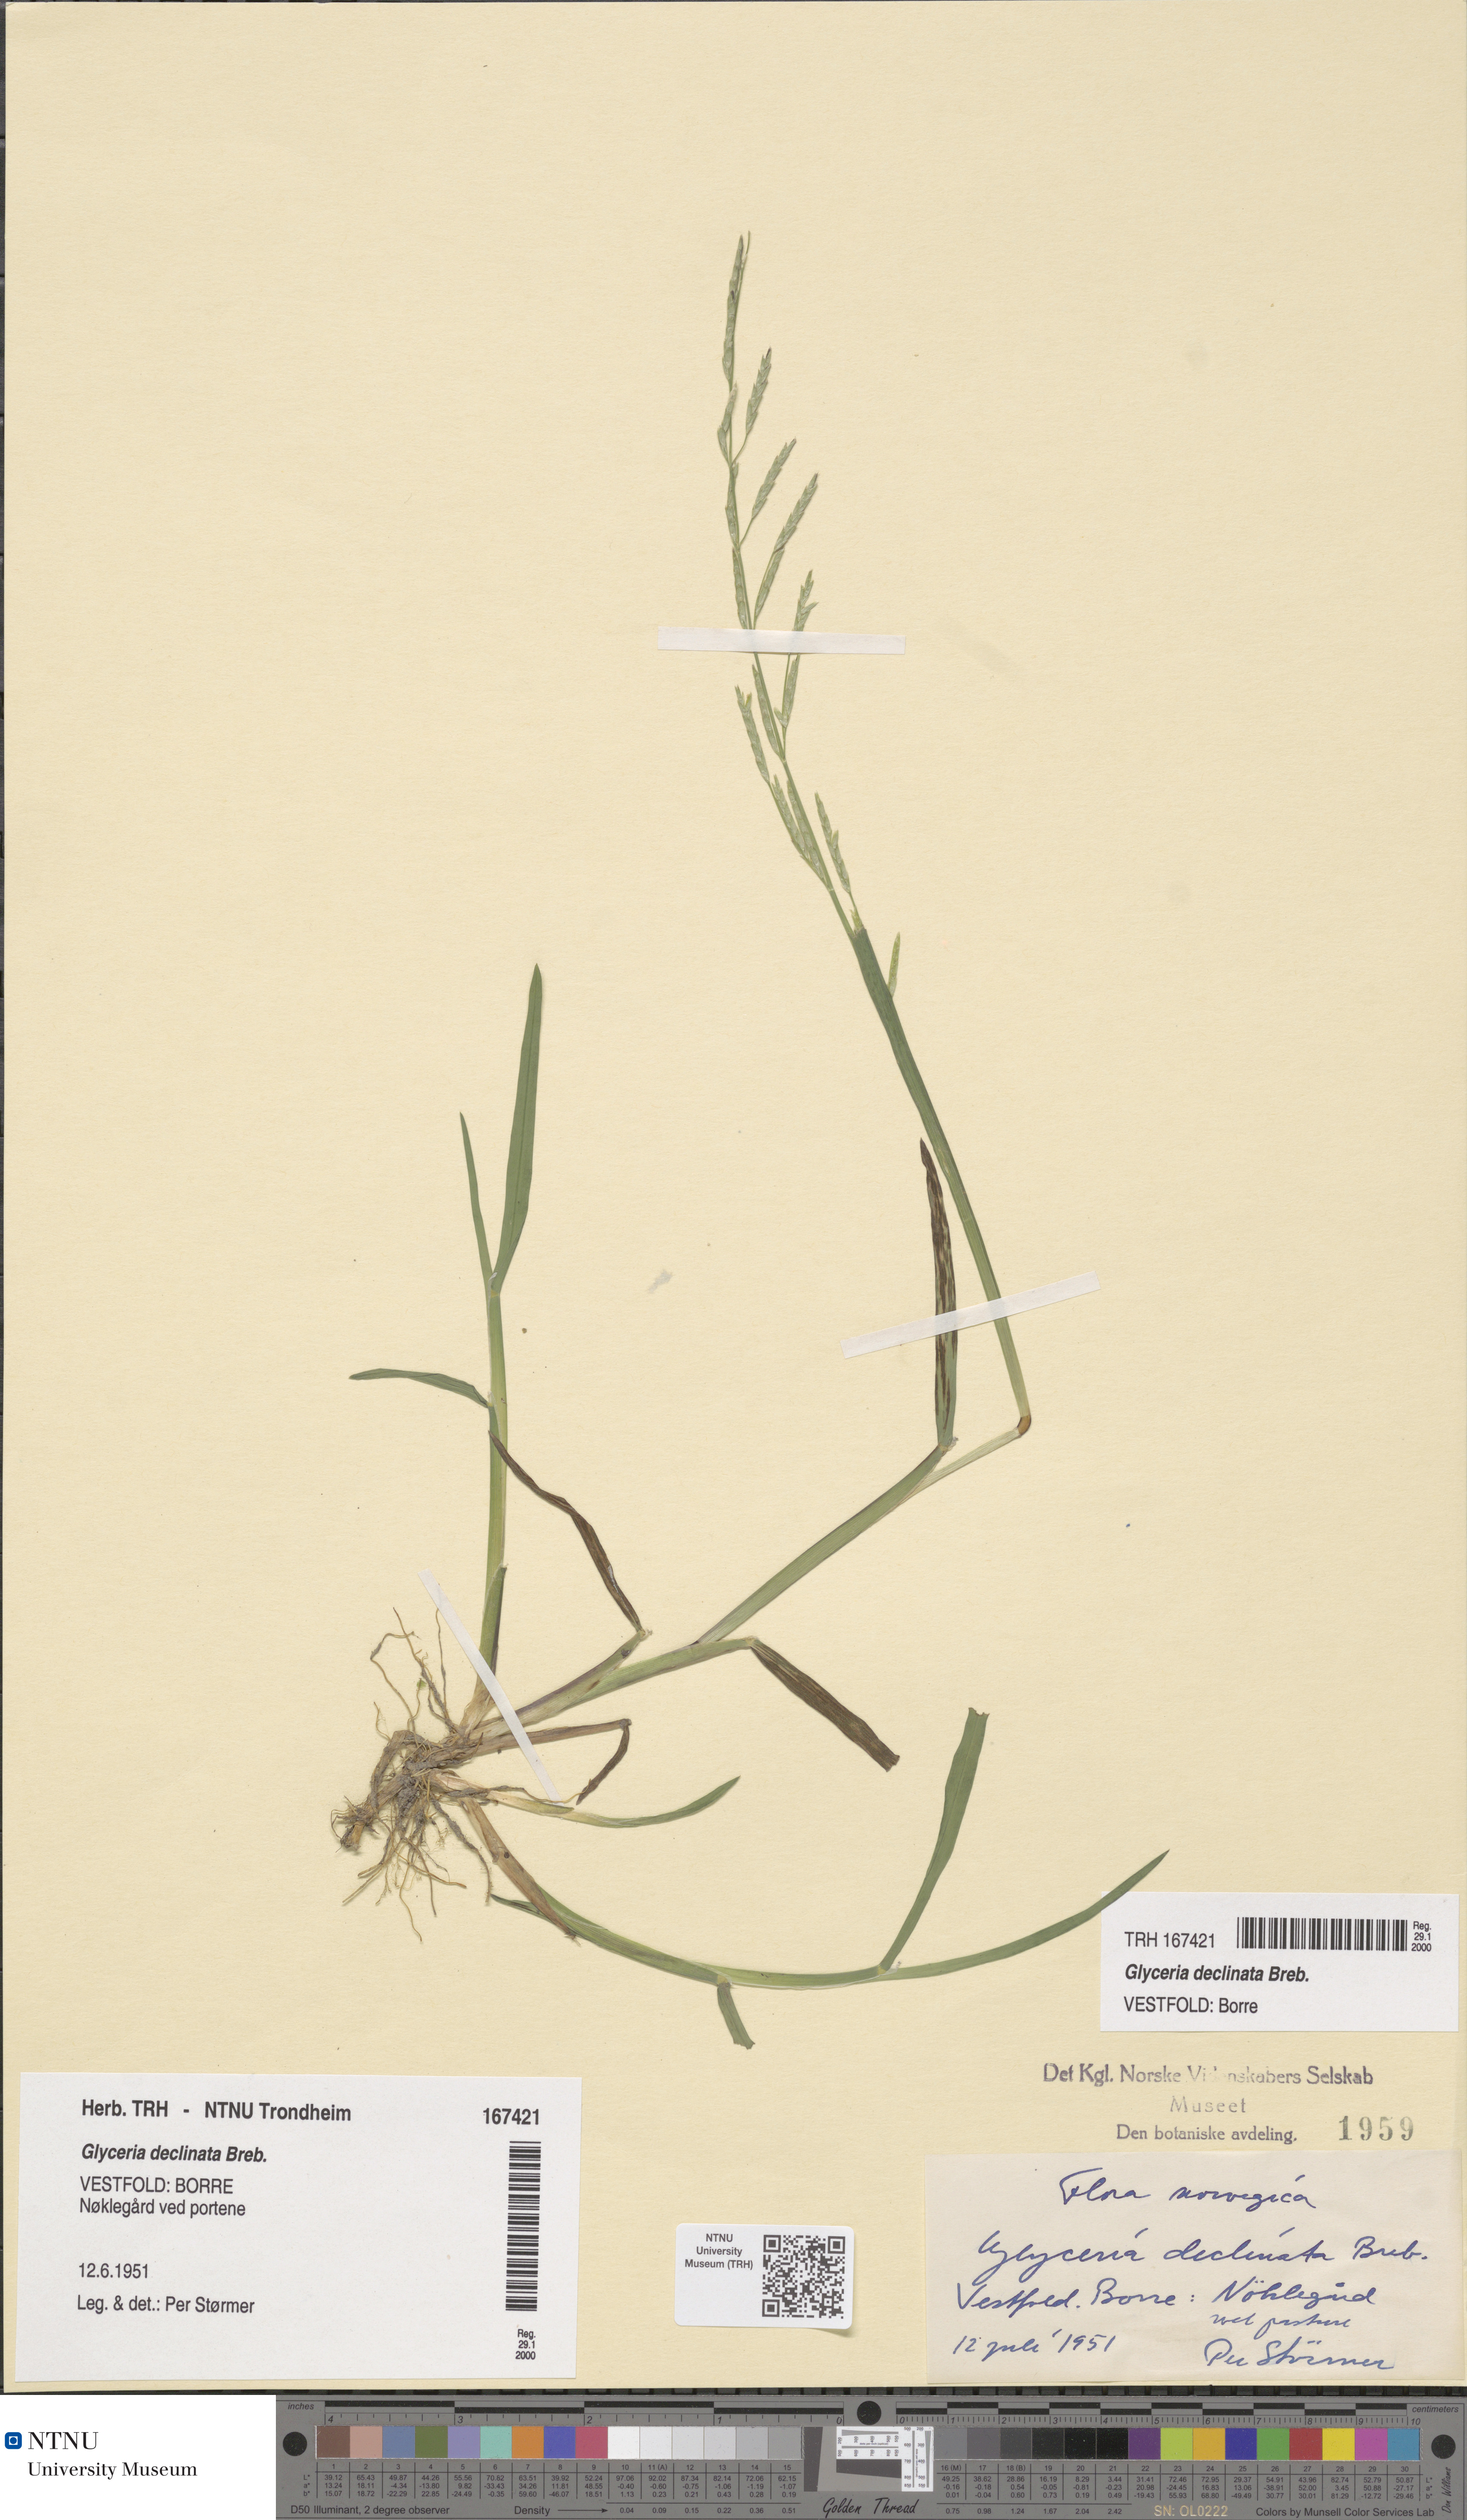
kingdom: Plantae
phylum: Tracheophyta
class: Liliopsida
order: Poales
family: Poaceae
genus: Glyceria
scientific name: Glyceria declinata
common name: Small sweet-grass
